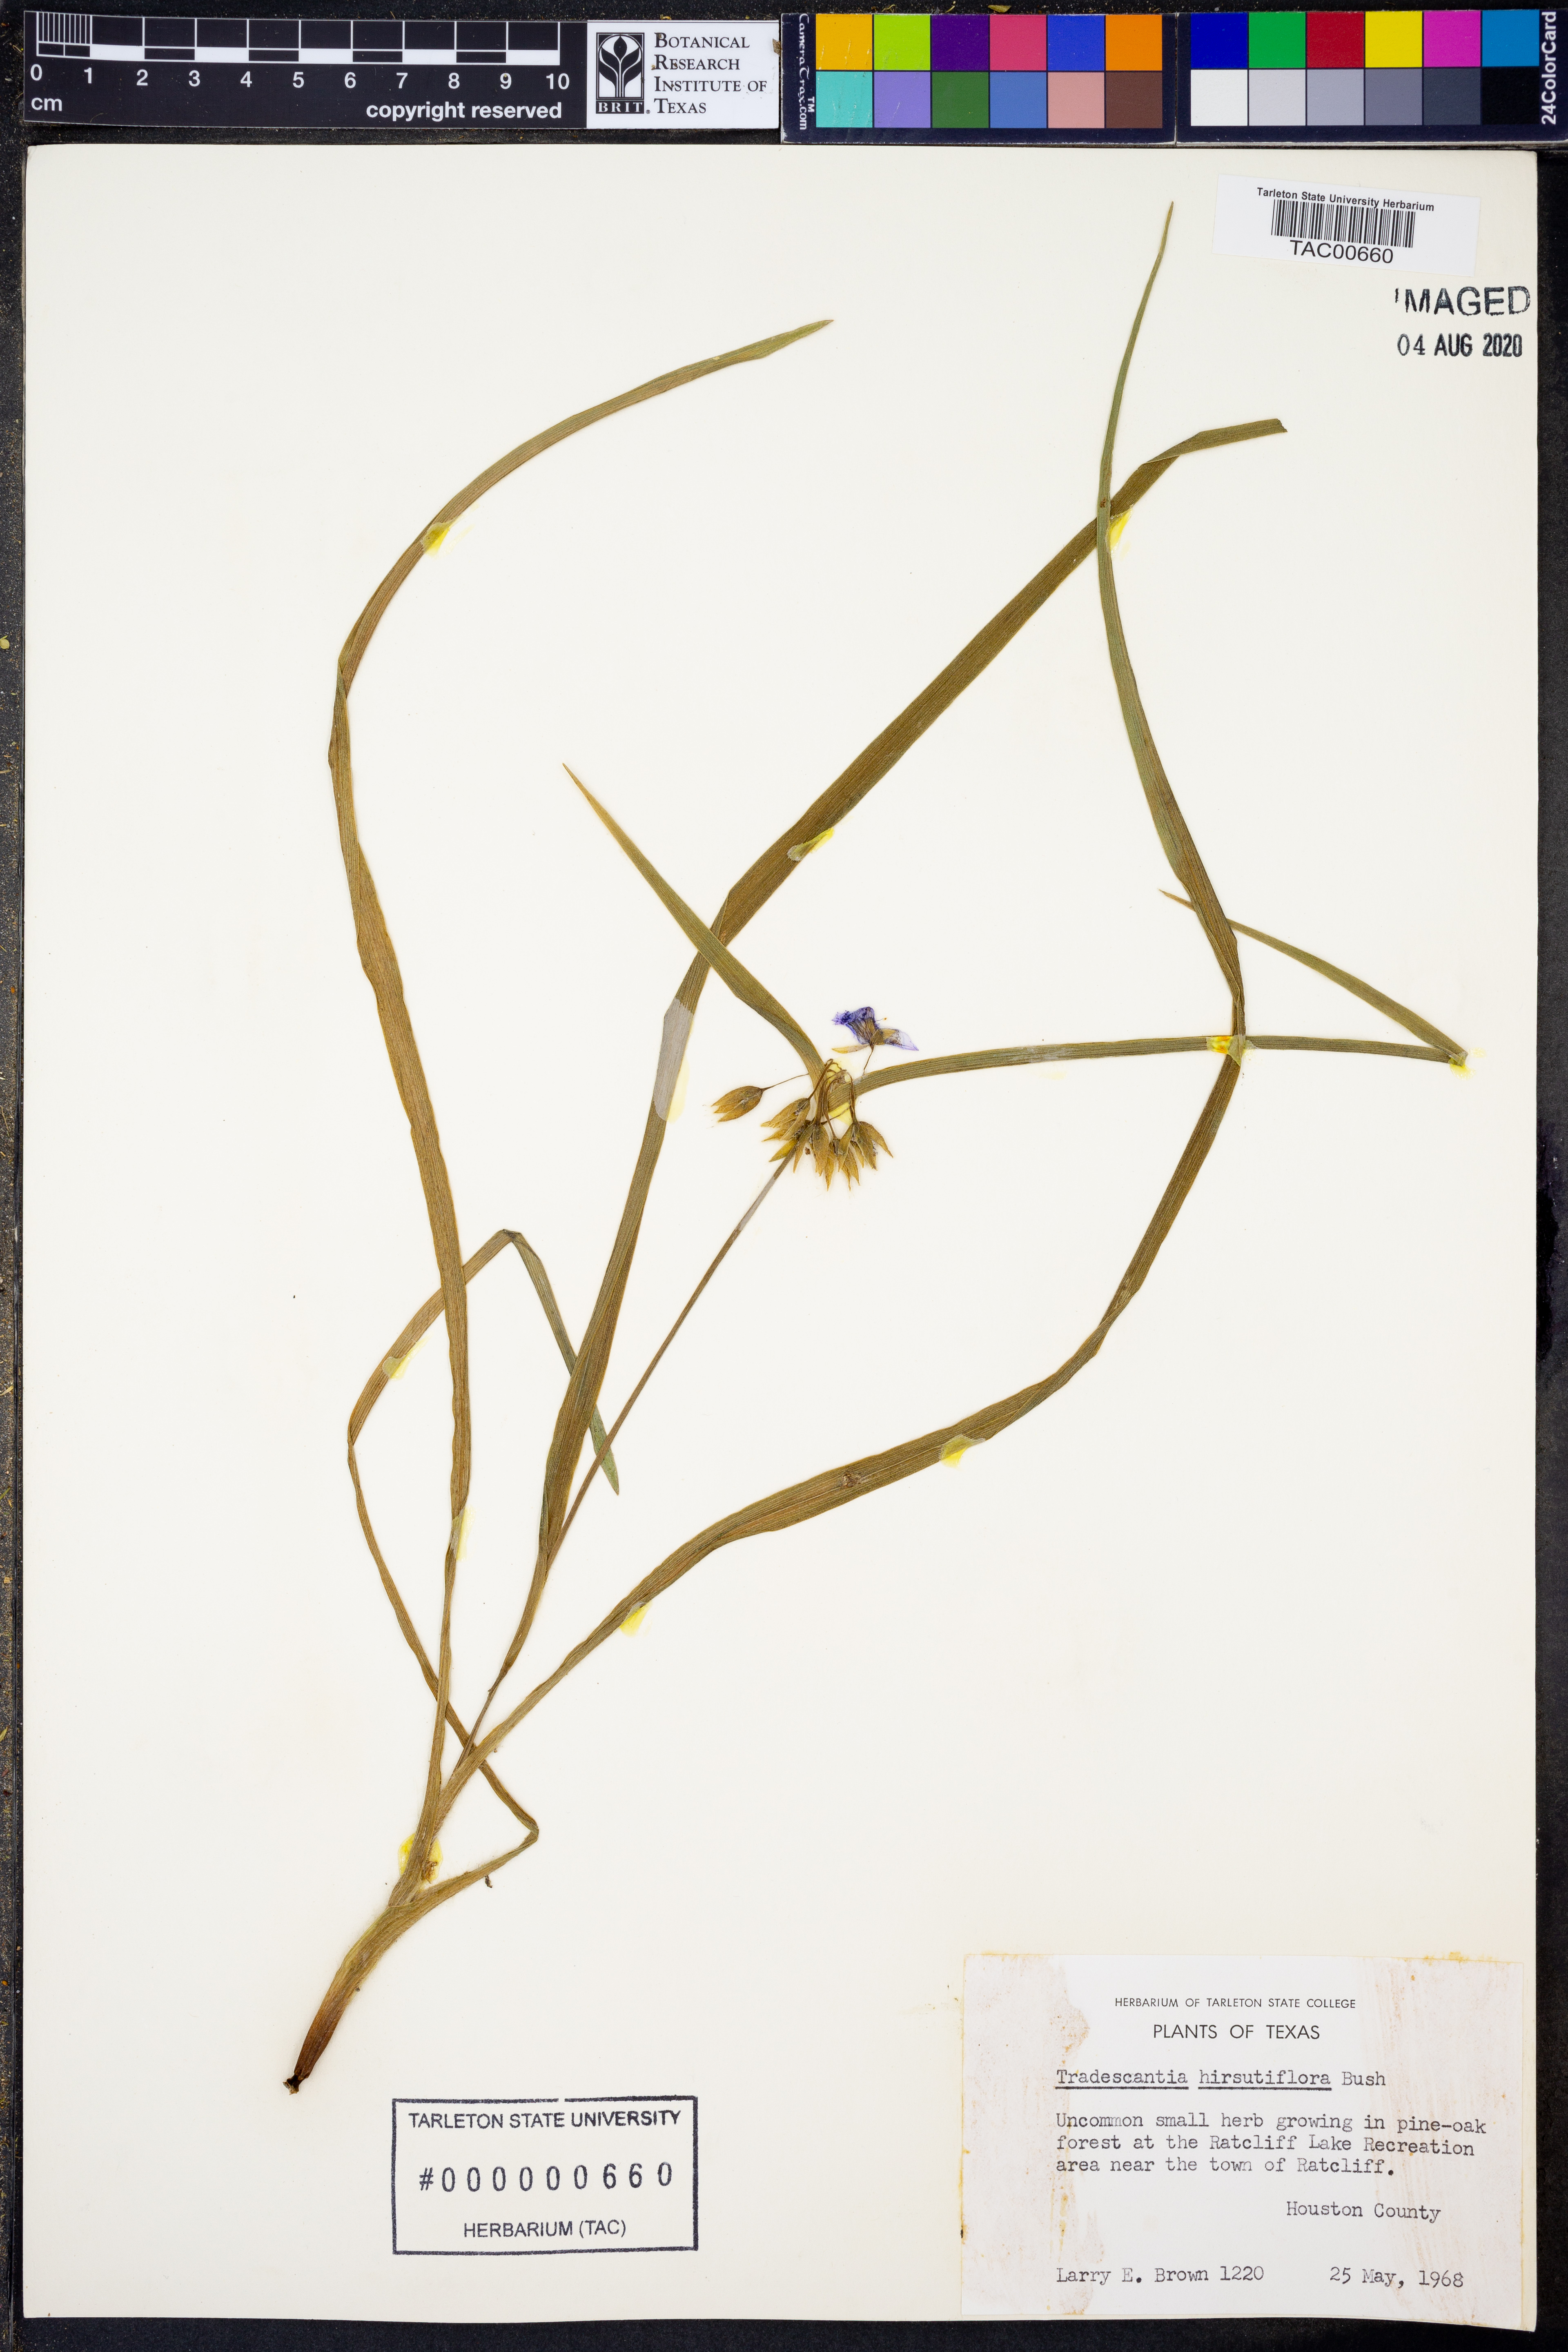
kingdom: Plantae
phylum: Tracheophyta
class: Liliopsida
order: Commelinales
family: Commelinaceae
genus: Tradescantia
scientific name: Tradescantia hirsutiflora
